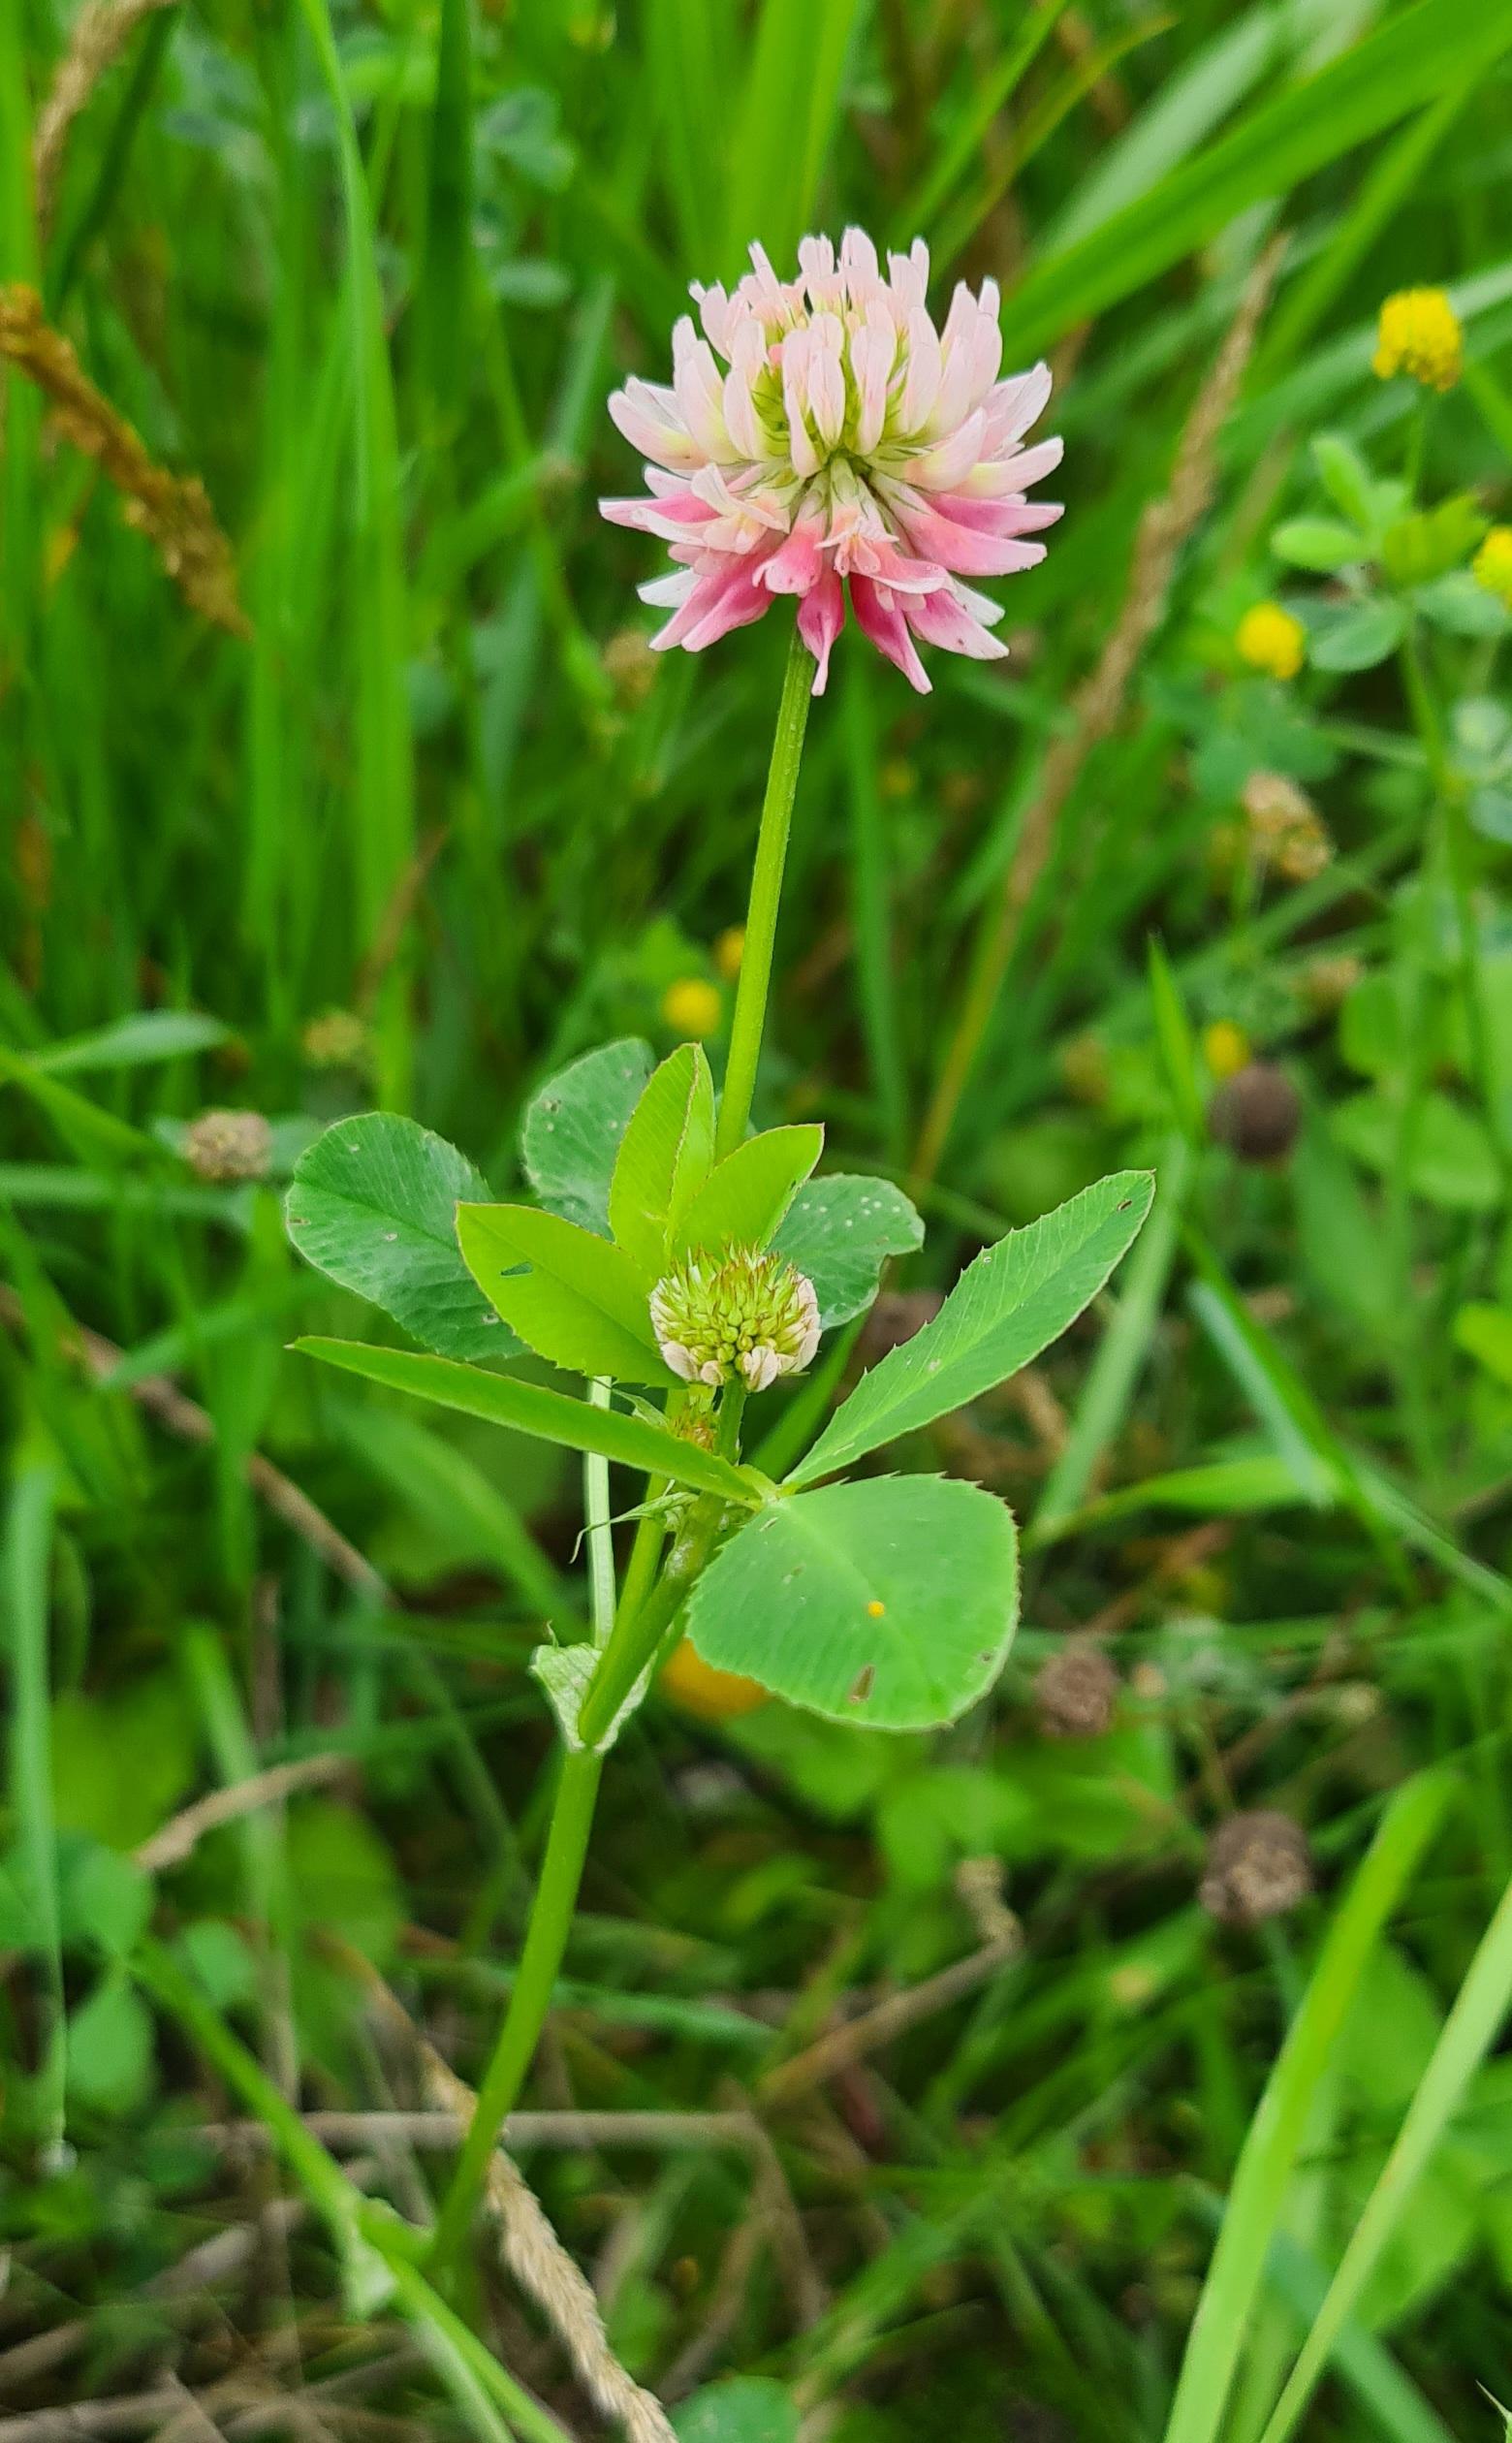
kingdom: Plantae
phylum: Tracheophyta
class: Magnoliopsida
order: Fabales
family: Fabaceae
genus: Trifolium
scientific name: Trifolium hybridum
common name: Alsike-kløver
